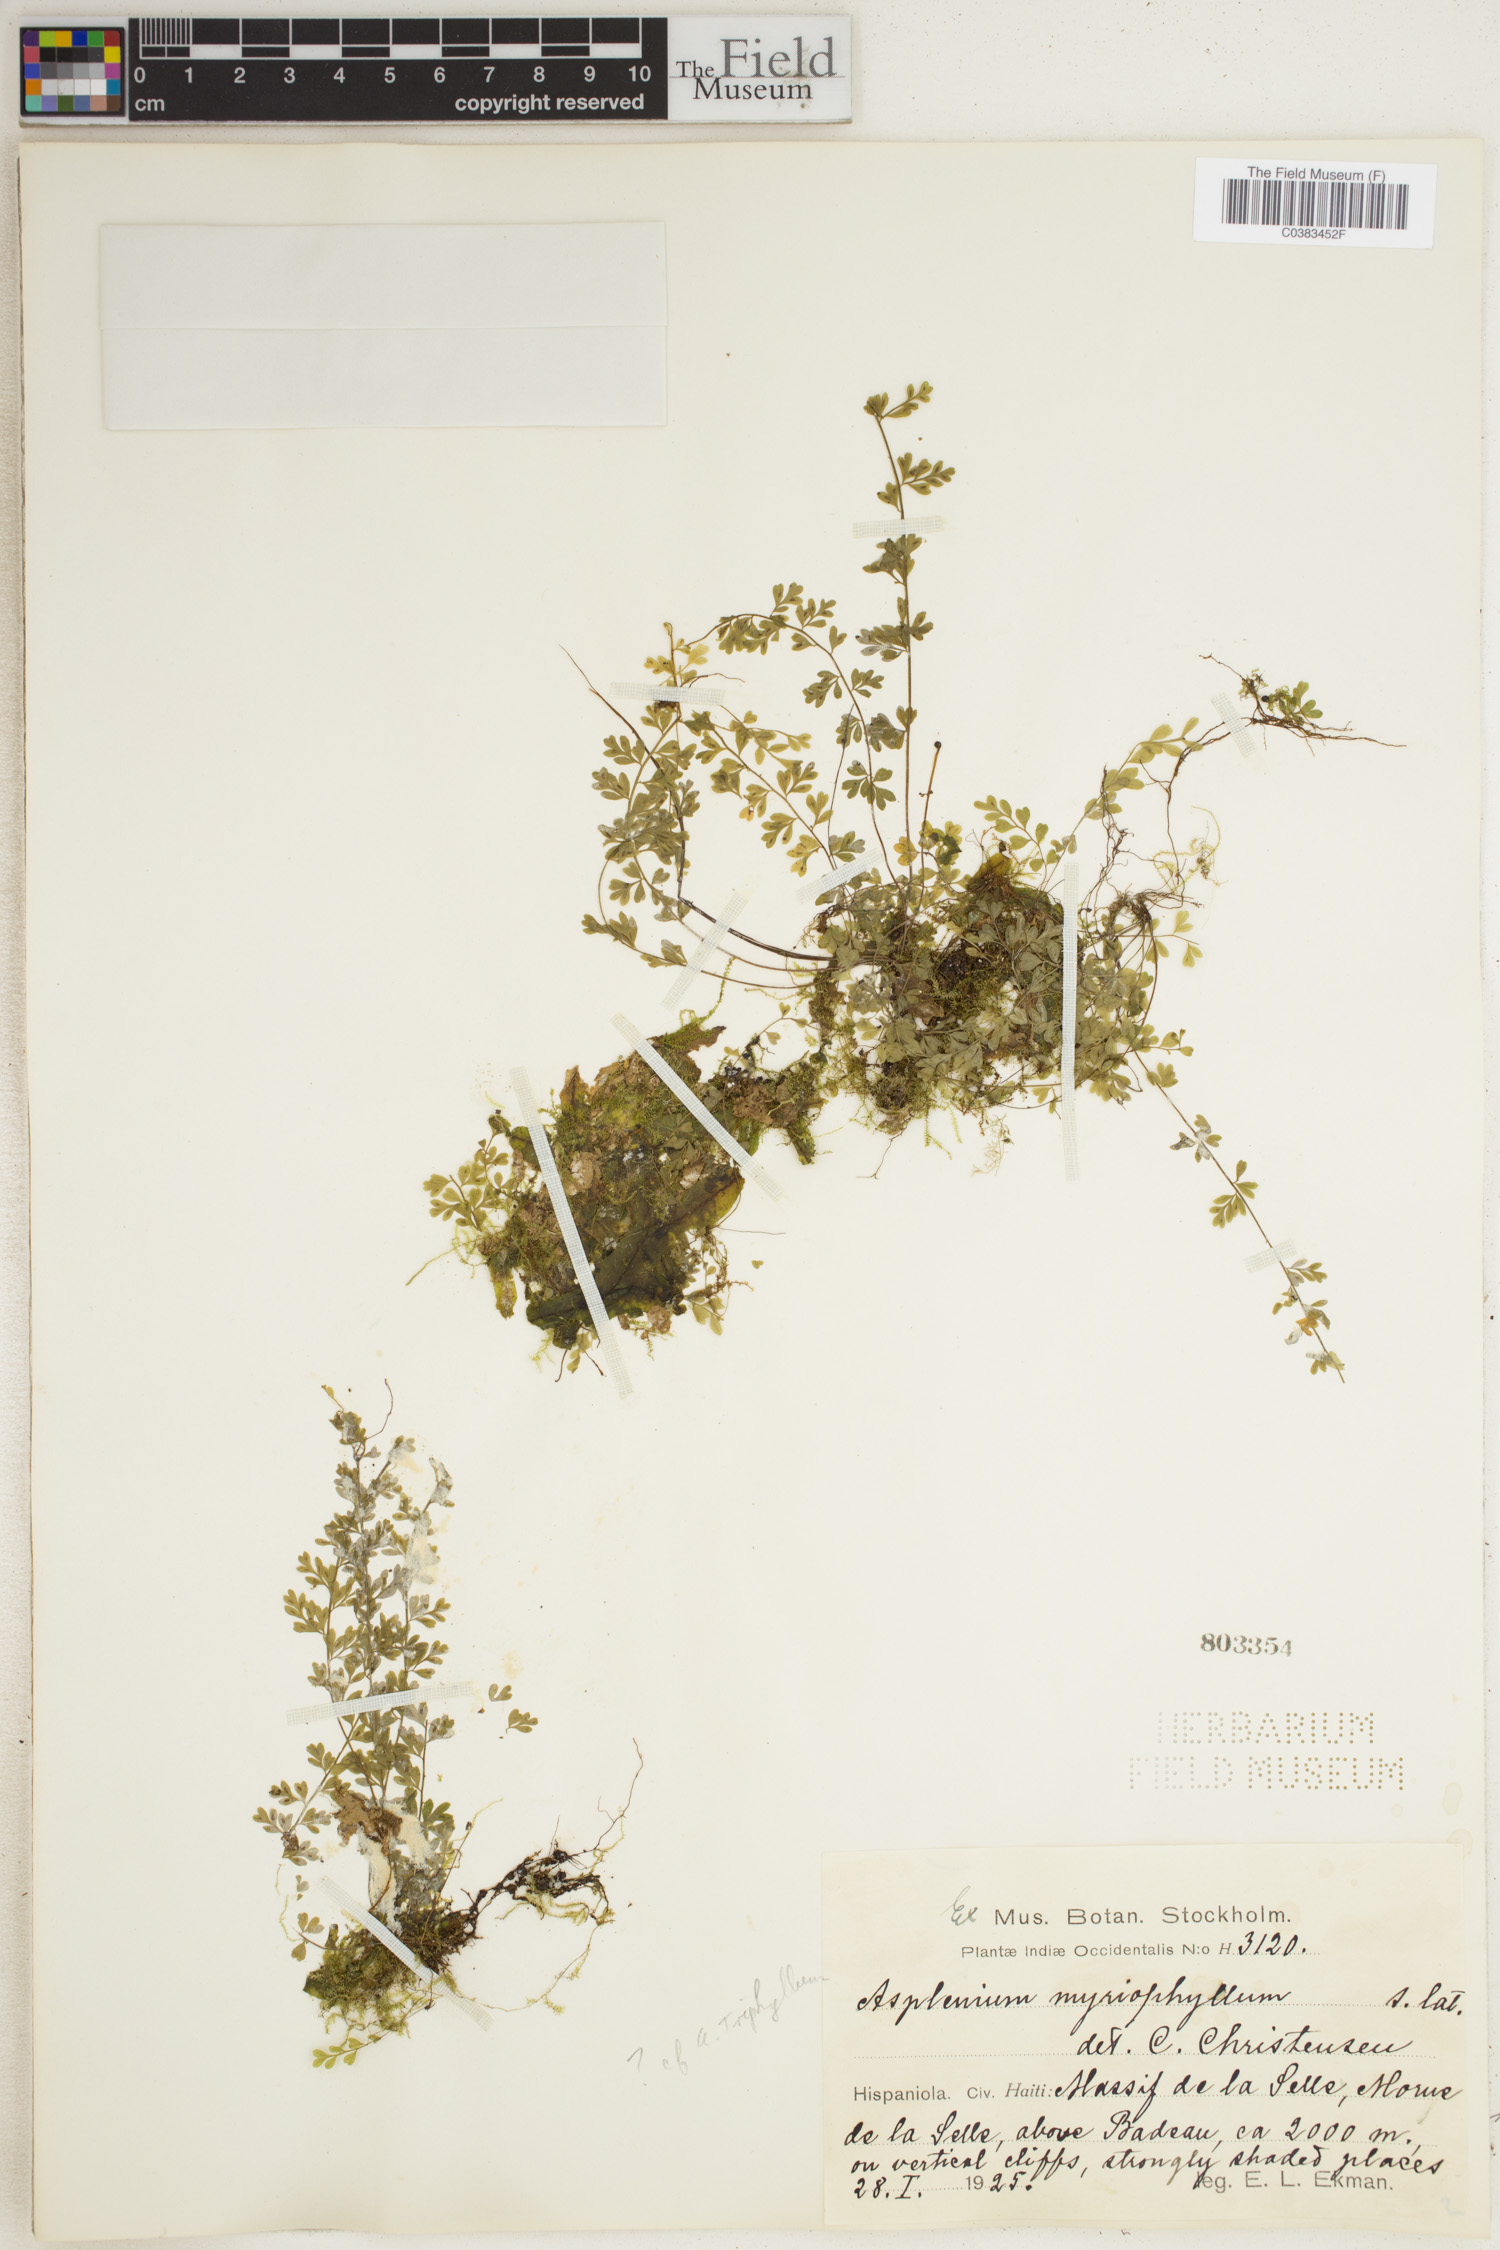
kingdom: Plantae
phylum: Tracheophyta
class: Polypodiopsida
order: Polypodiales
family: Aspleniaceae
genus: Asplenium
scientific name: Asplenium myriophyllum
